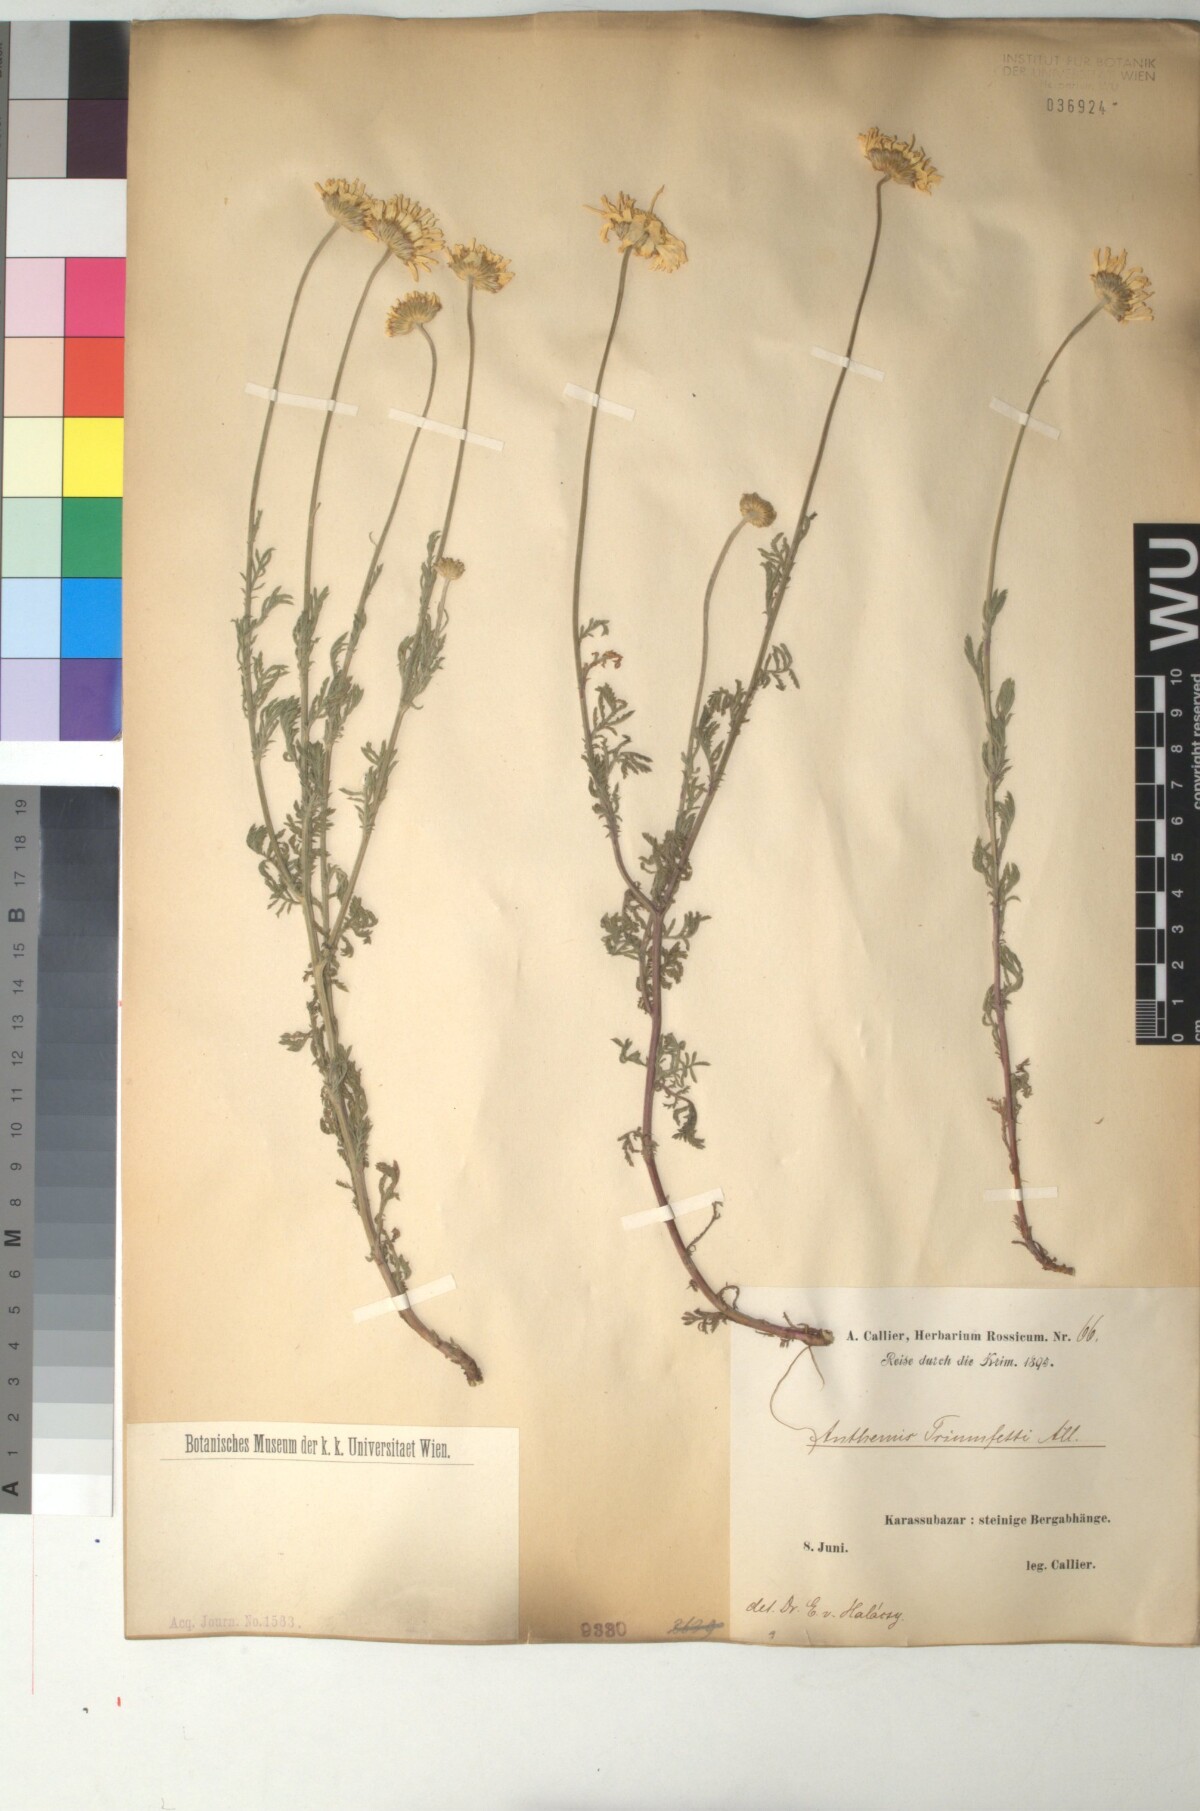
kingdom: Plantae
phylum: Tracheophyta
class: Magnoliopsida
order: Asterales
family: Asteraceae
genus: Cota
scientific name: Cota triumfetti
